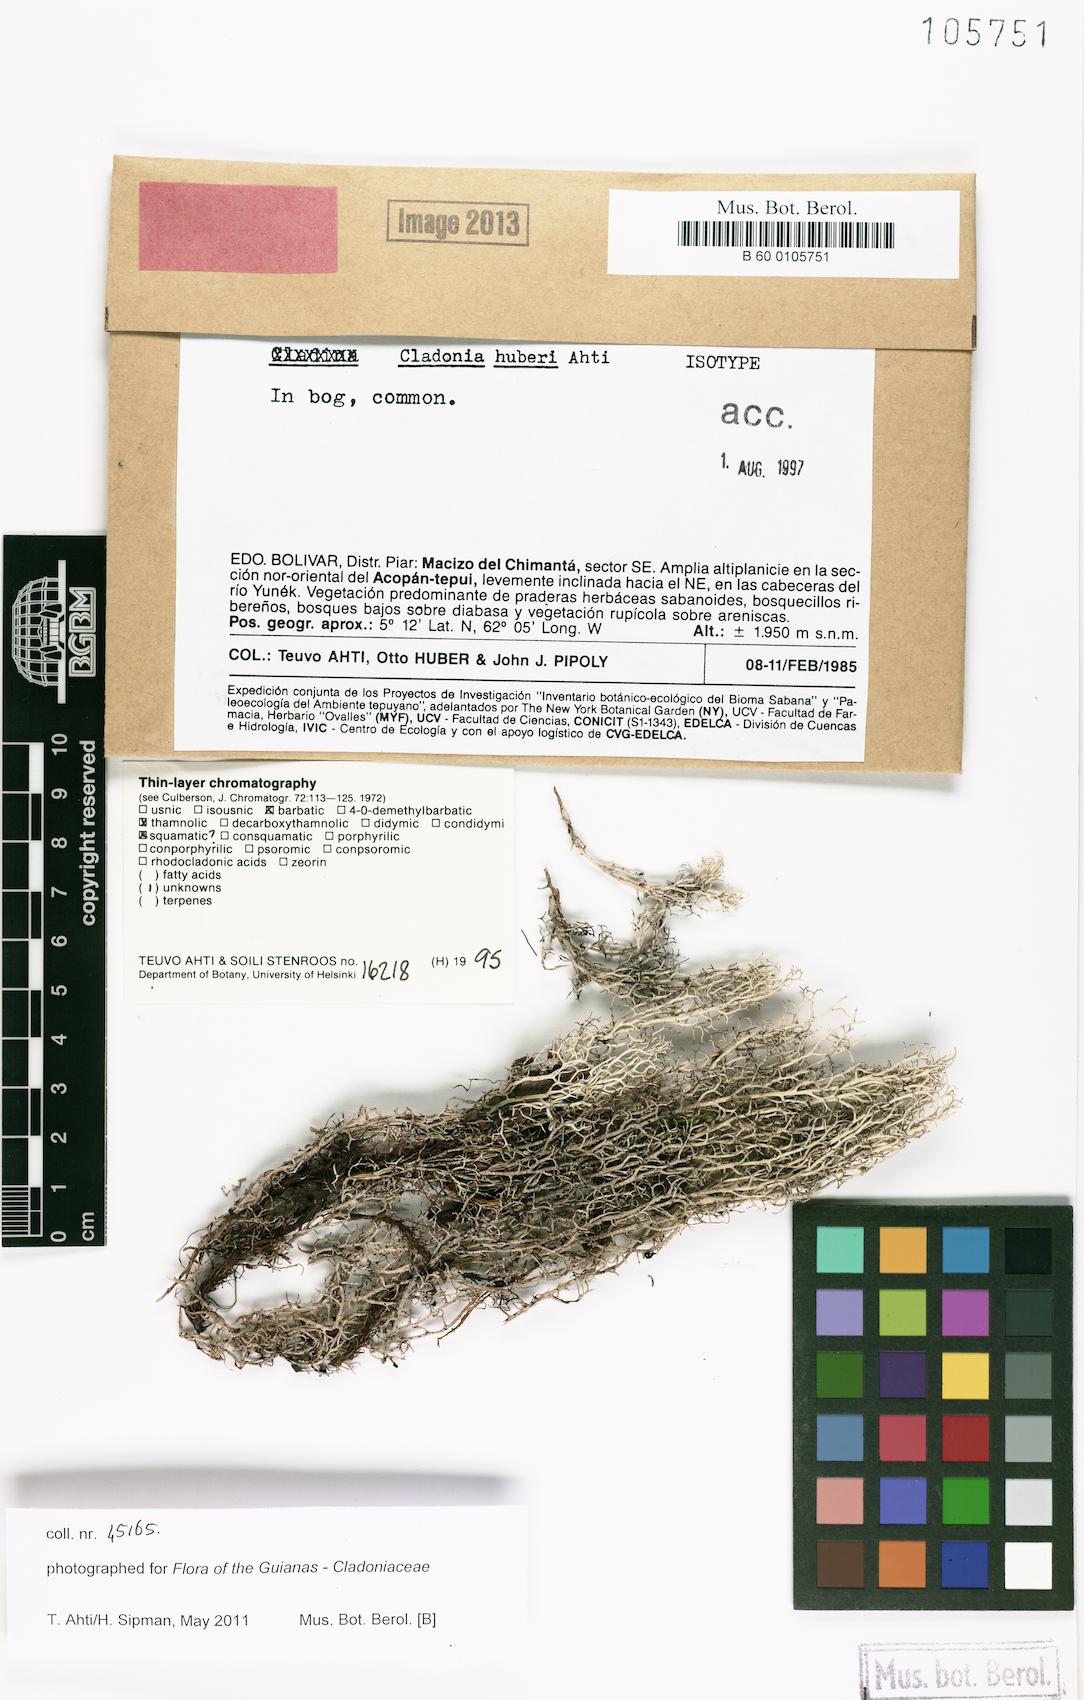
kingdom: Fungi
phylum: Ascomycota
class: Lecanoromycetes
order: Lecanorales
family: Cladoniaceae
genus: Cladonia
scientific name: Cladonia huberi
